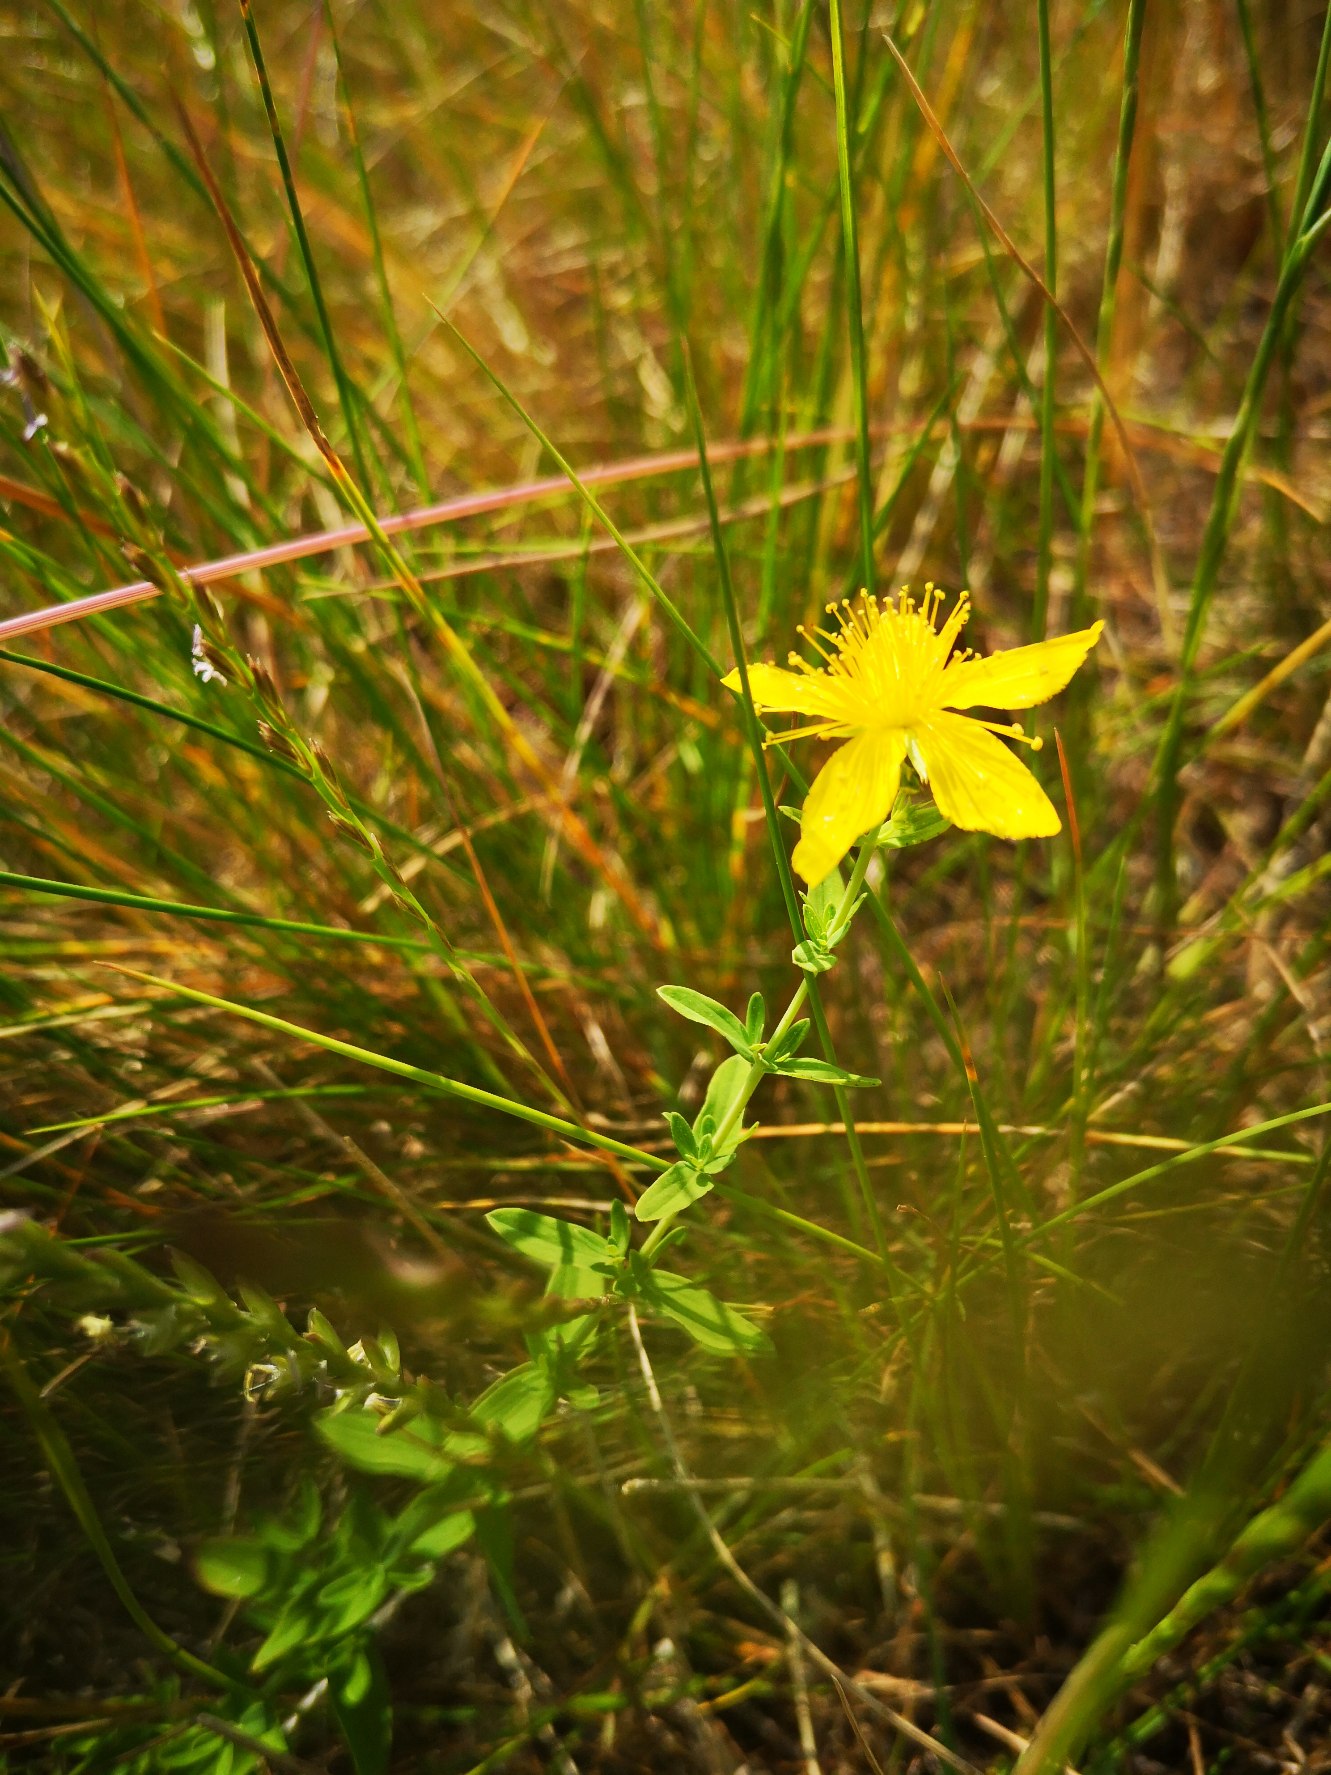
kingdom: Plantae
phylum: Tracheophyta
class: Magnoliopsida
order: Malpighiales
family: Hypericaceae
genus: Hypericum
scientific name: Hypericum perforatum
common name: Prikbladet perikon
